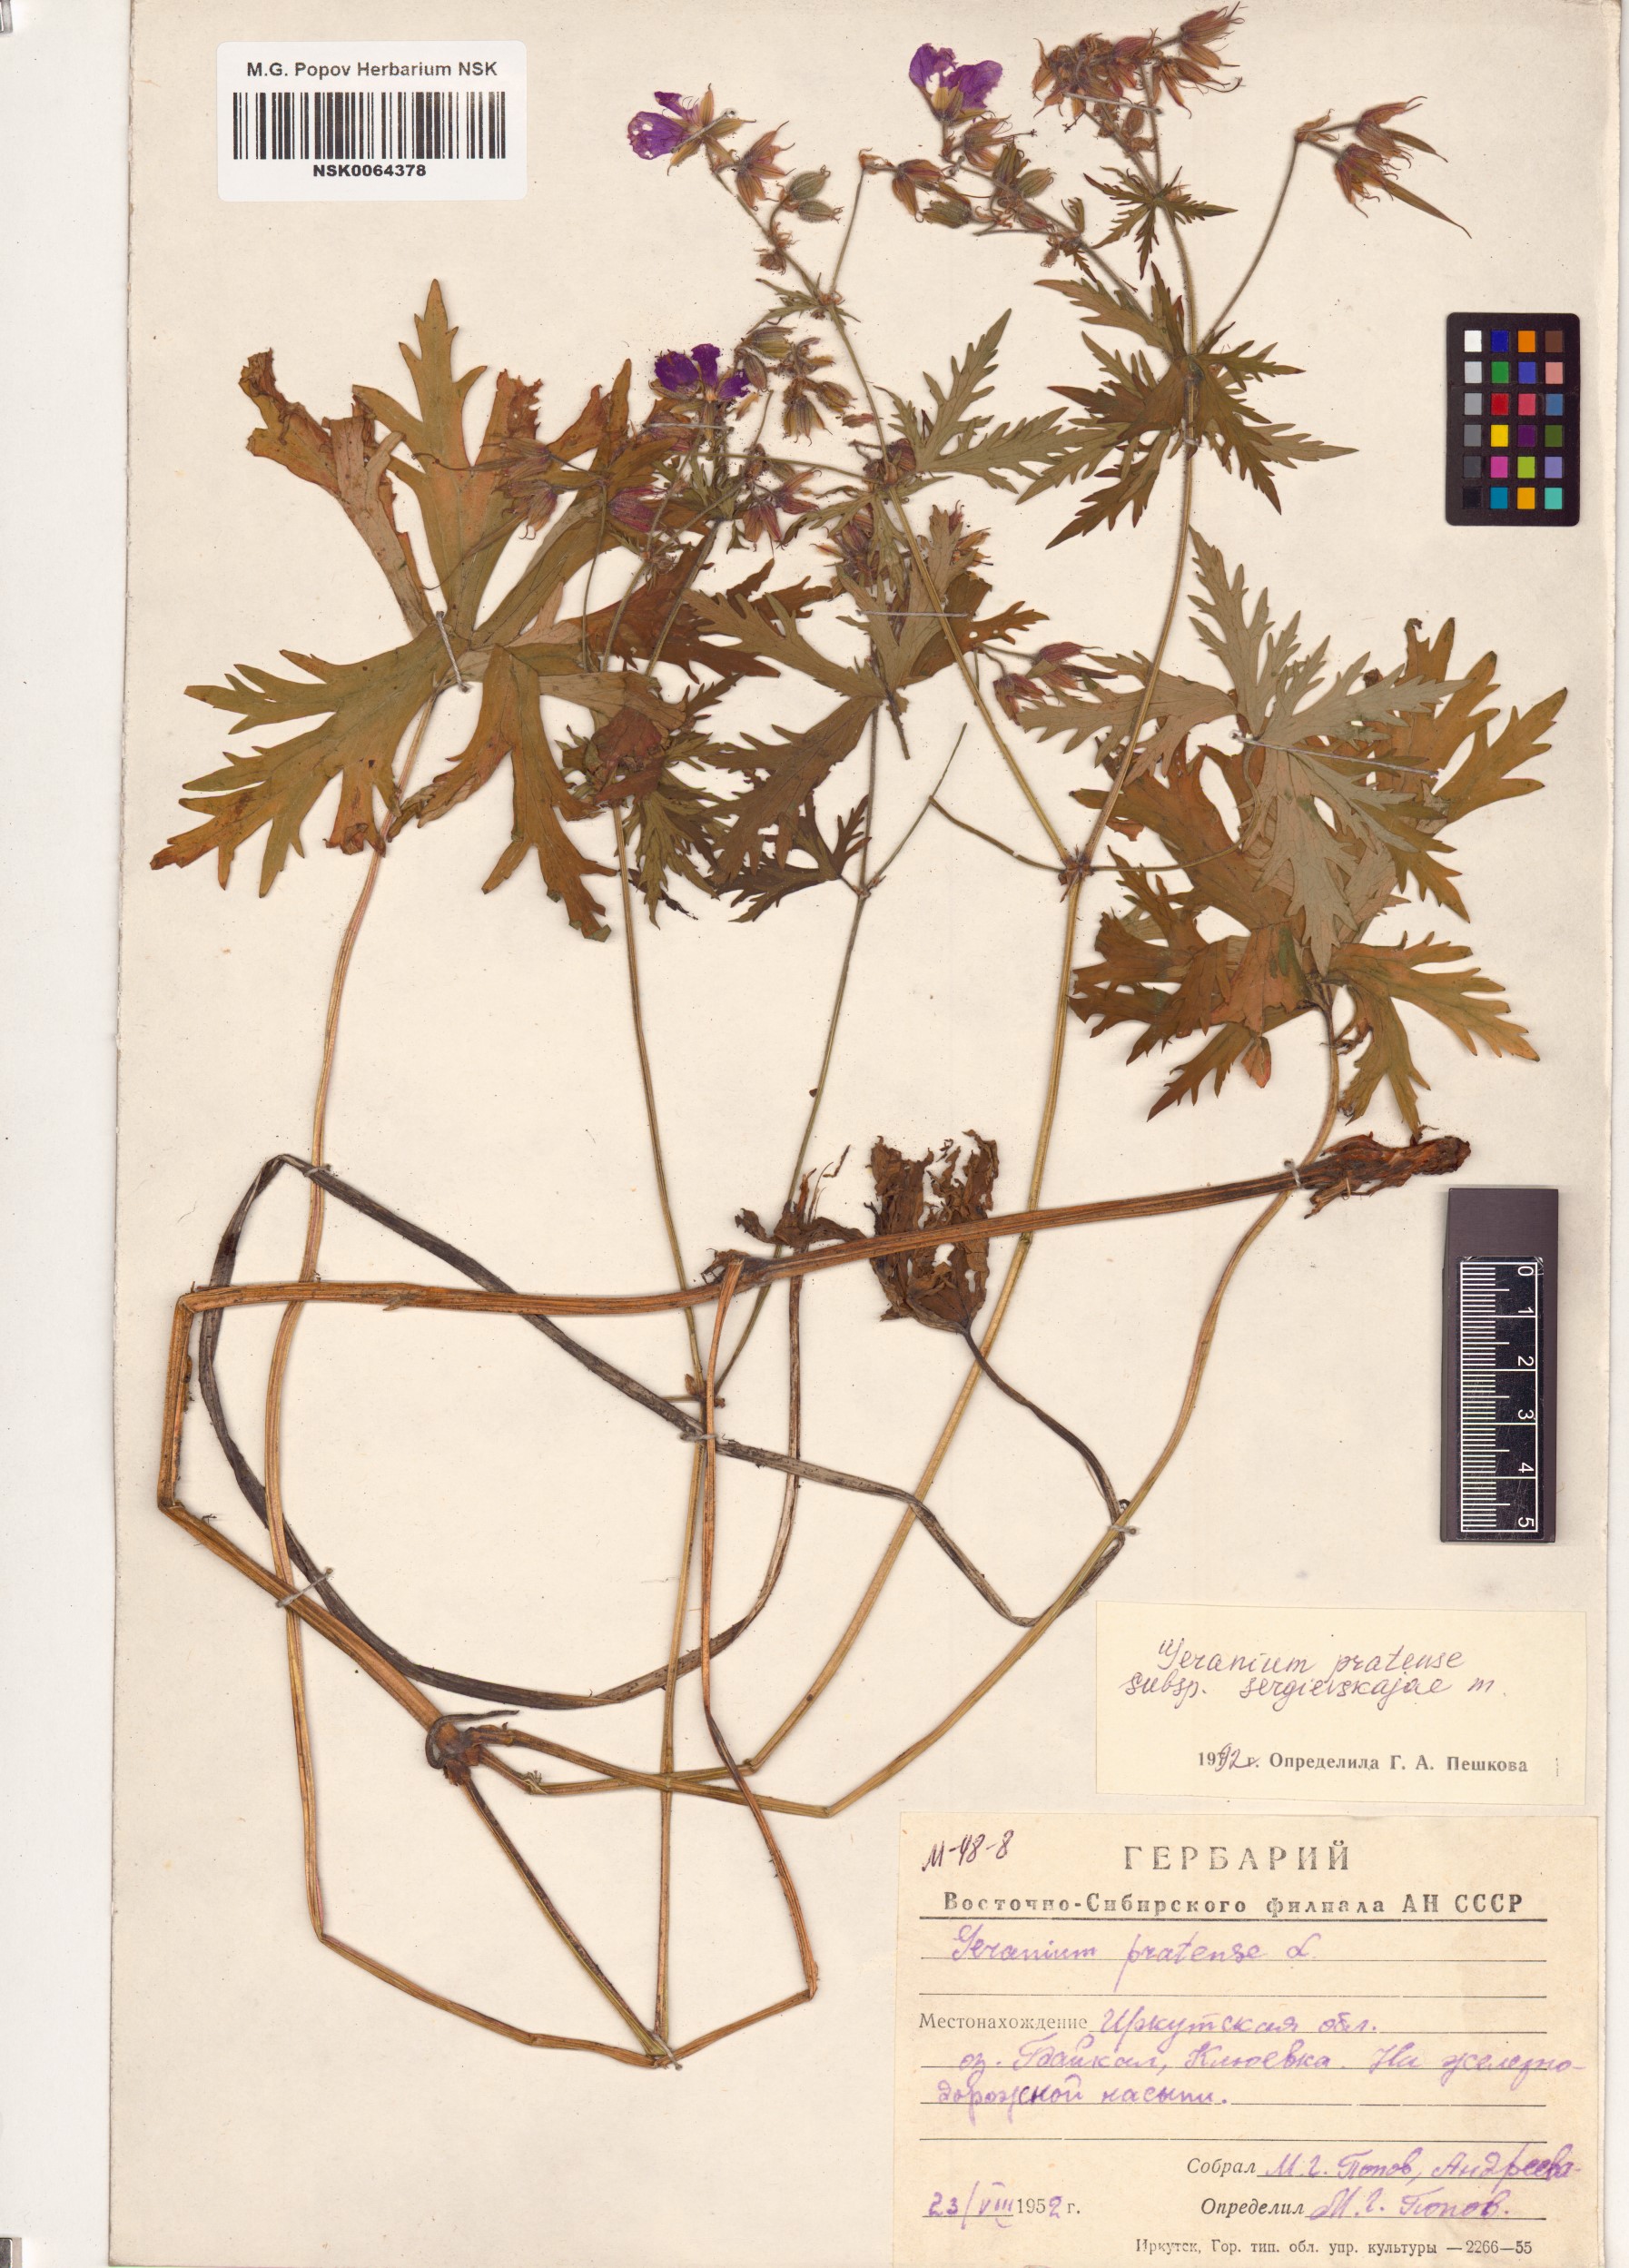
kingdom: Plantae
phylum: Tracheophyta
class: Magnoliopsida
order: Geraniales
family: Geraniaceae
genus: Geranium
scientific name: Geranium pratense
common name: Meadow crane's-bill
